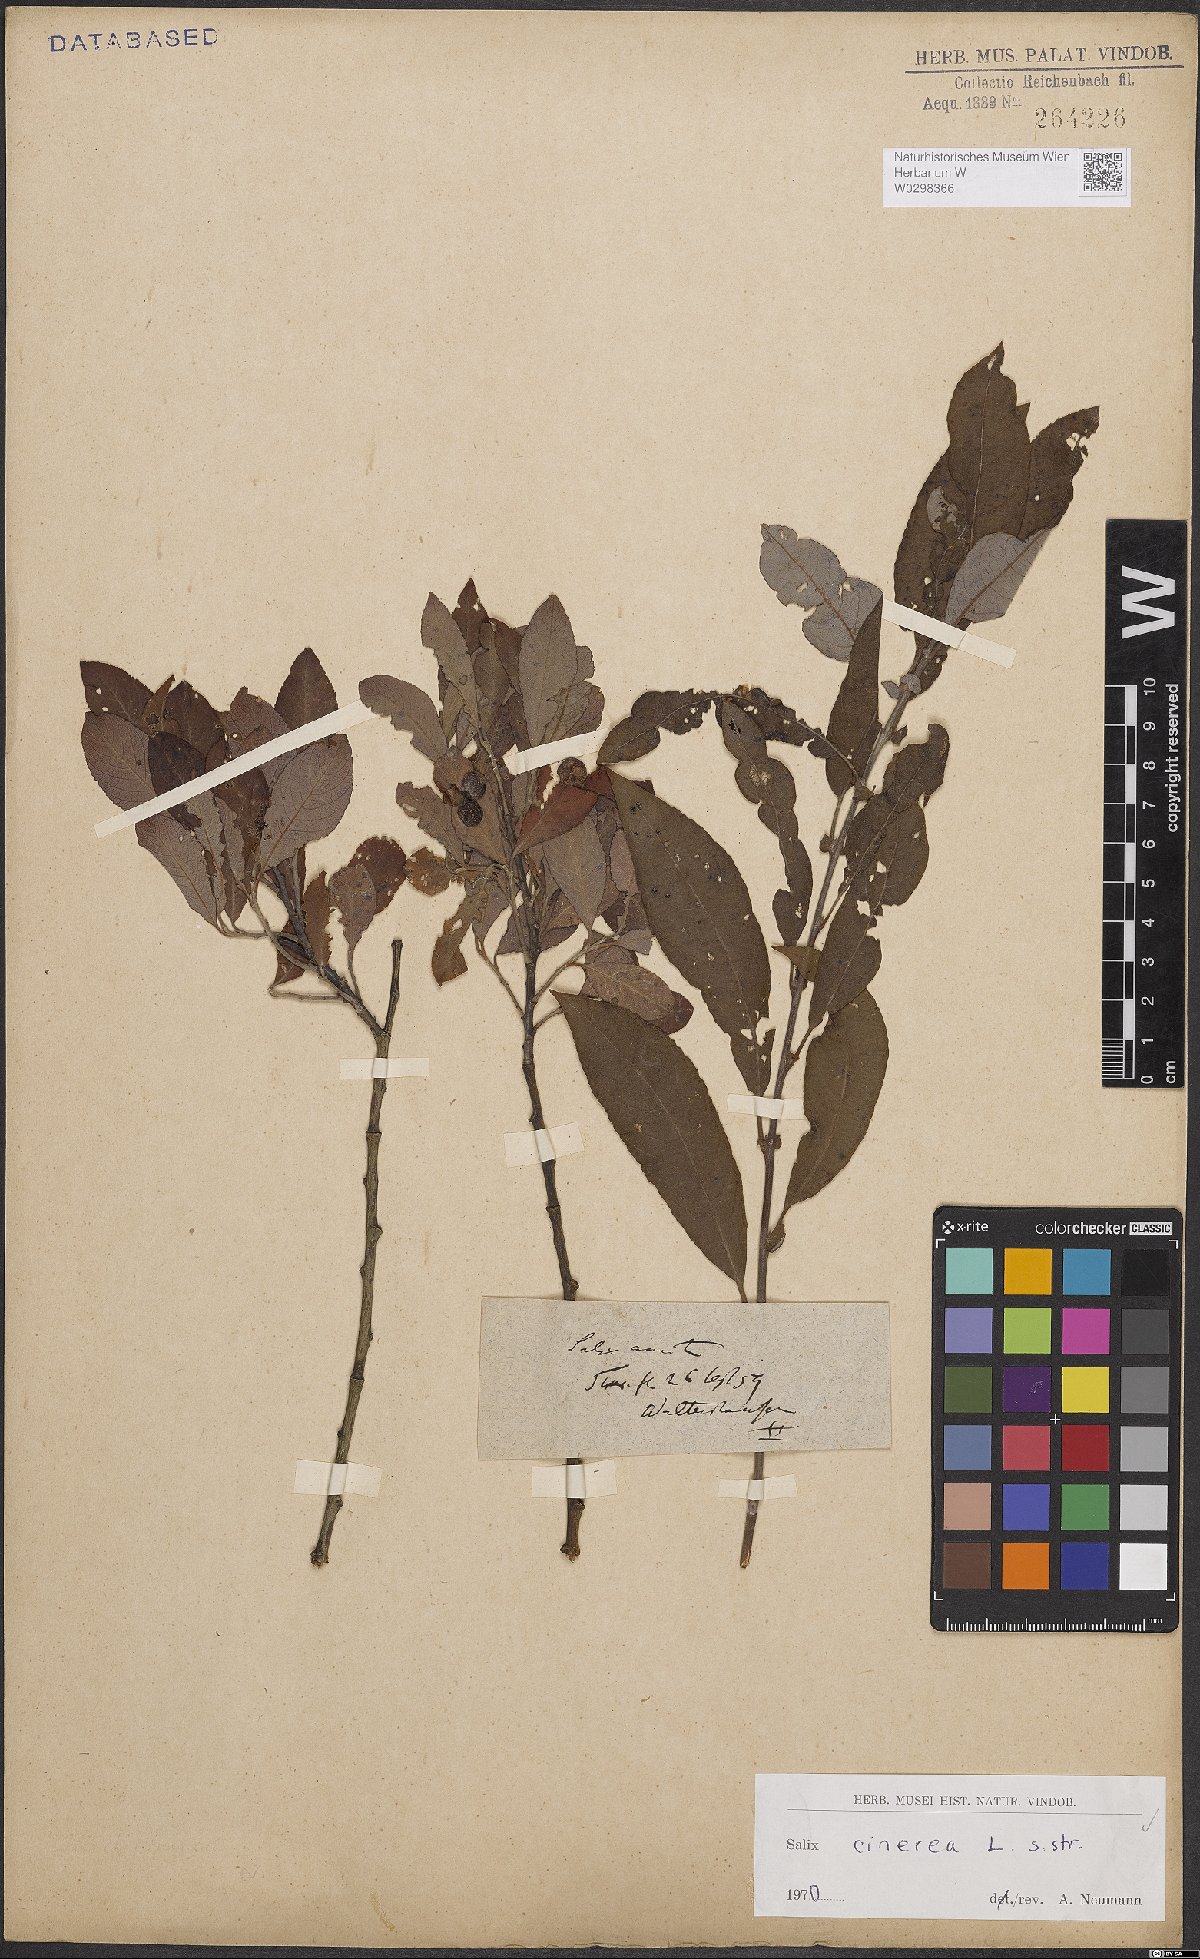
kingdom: Plantae
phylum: Tracheophyta
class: Magnoliopsida
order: Malpighiales
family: Salicaceae
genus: Salix
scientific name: Salix cinerea
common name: Common sallow
